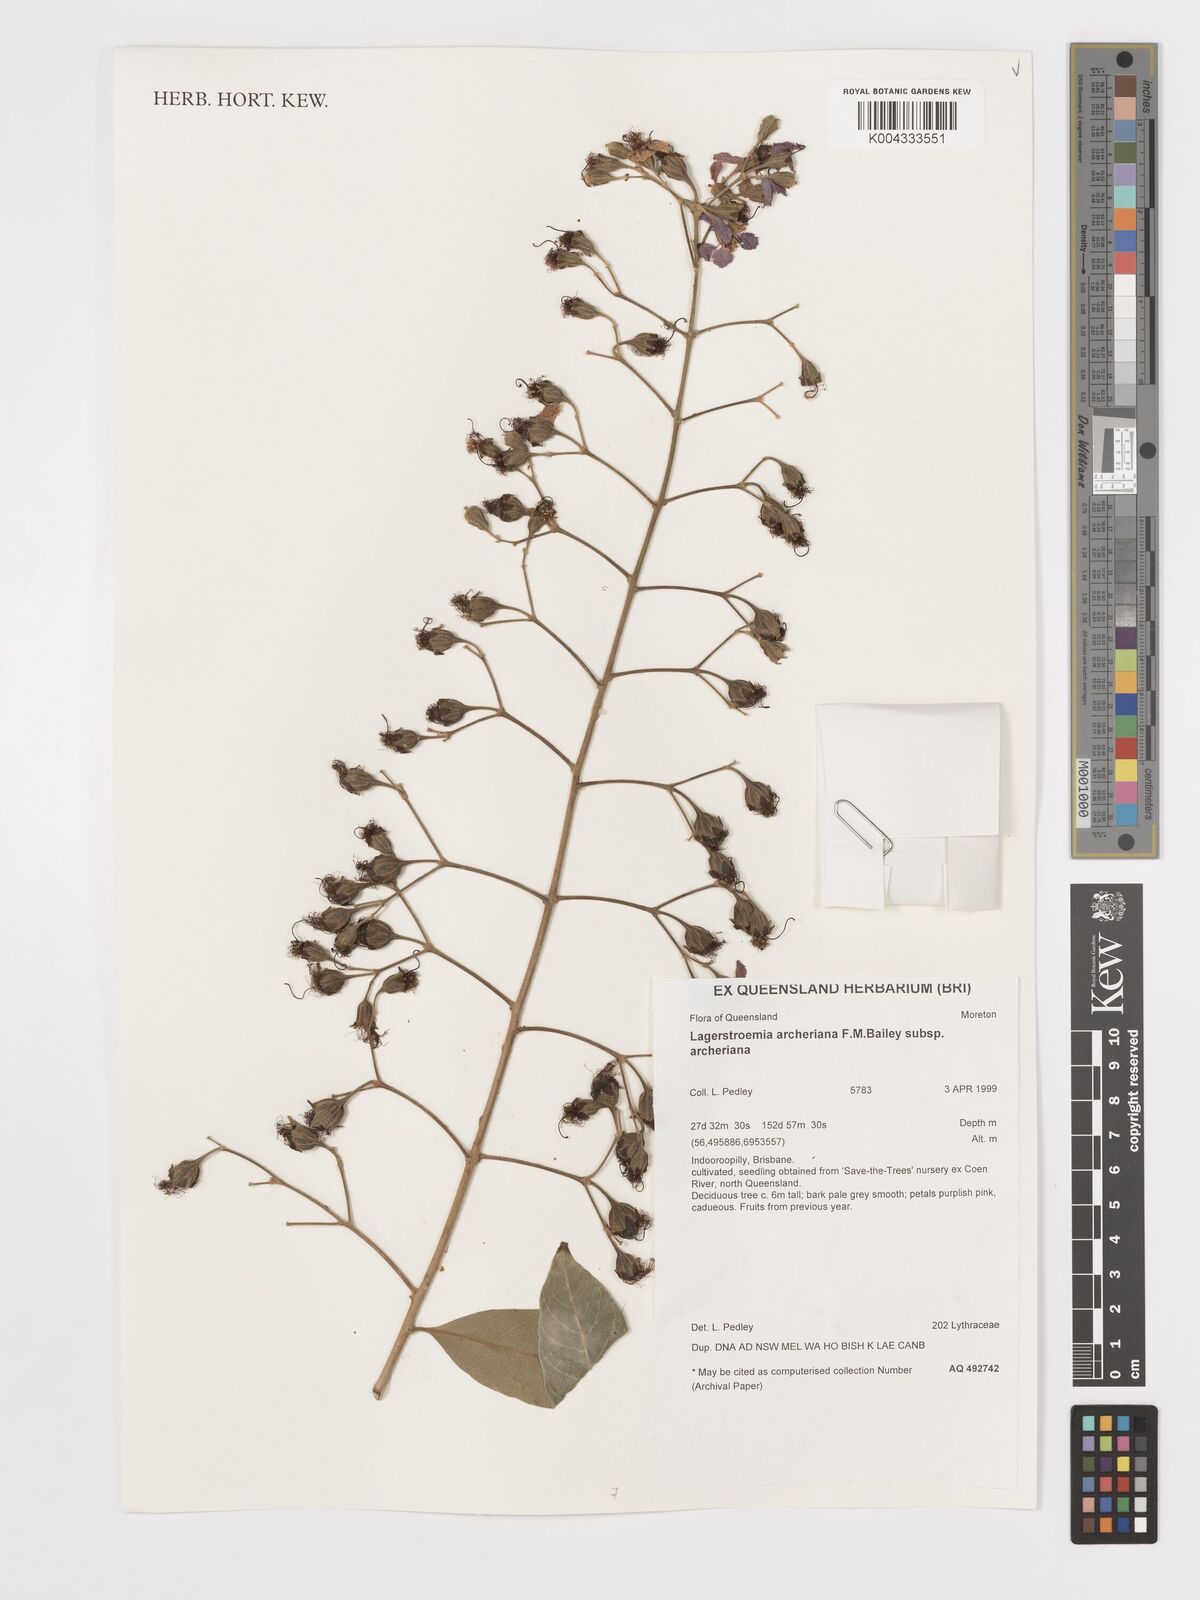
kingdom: Plantae
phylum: Tracheophyta
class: Magnoliopsida
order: Myrtales
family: Lythraceae
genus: Lagerstroemia
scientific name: Lagerstroemia engleriana
